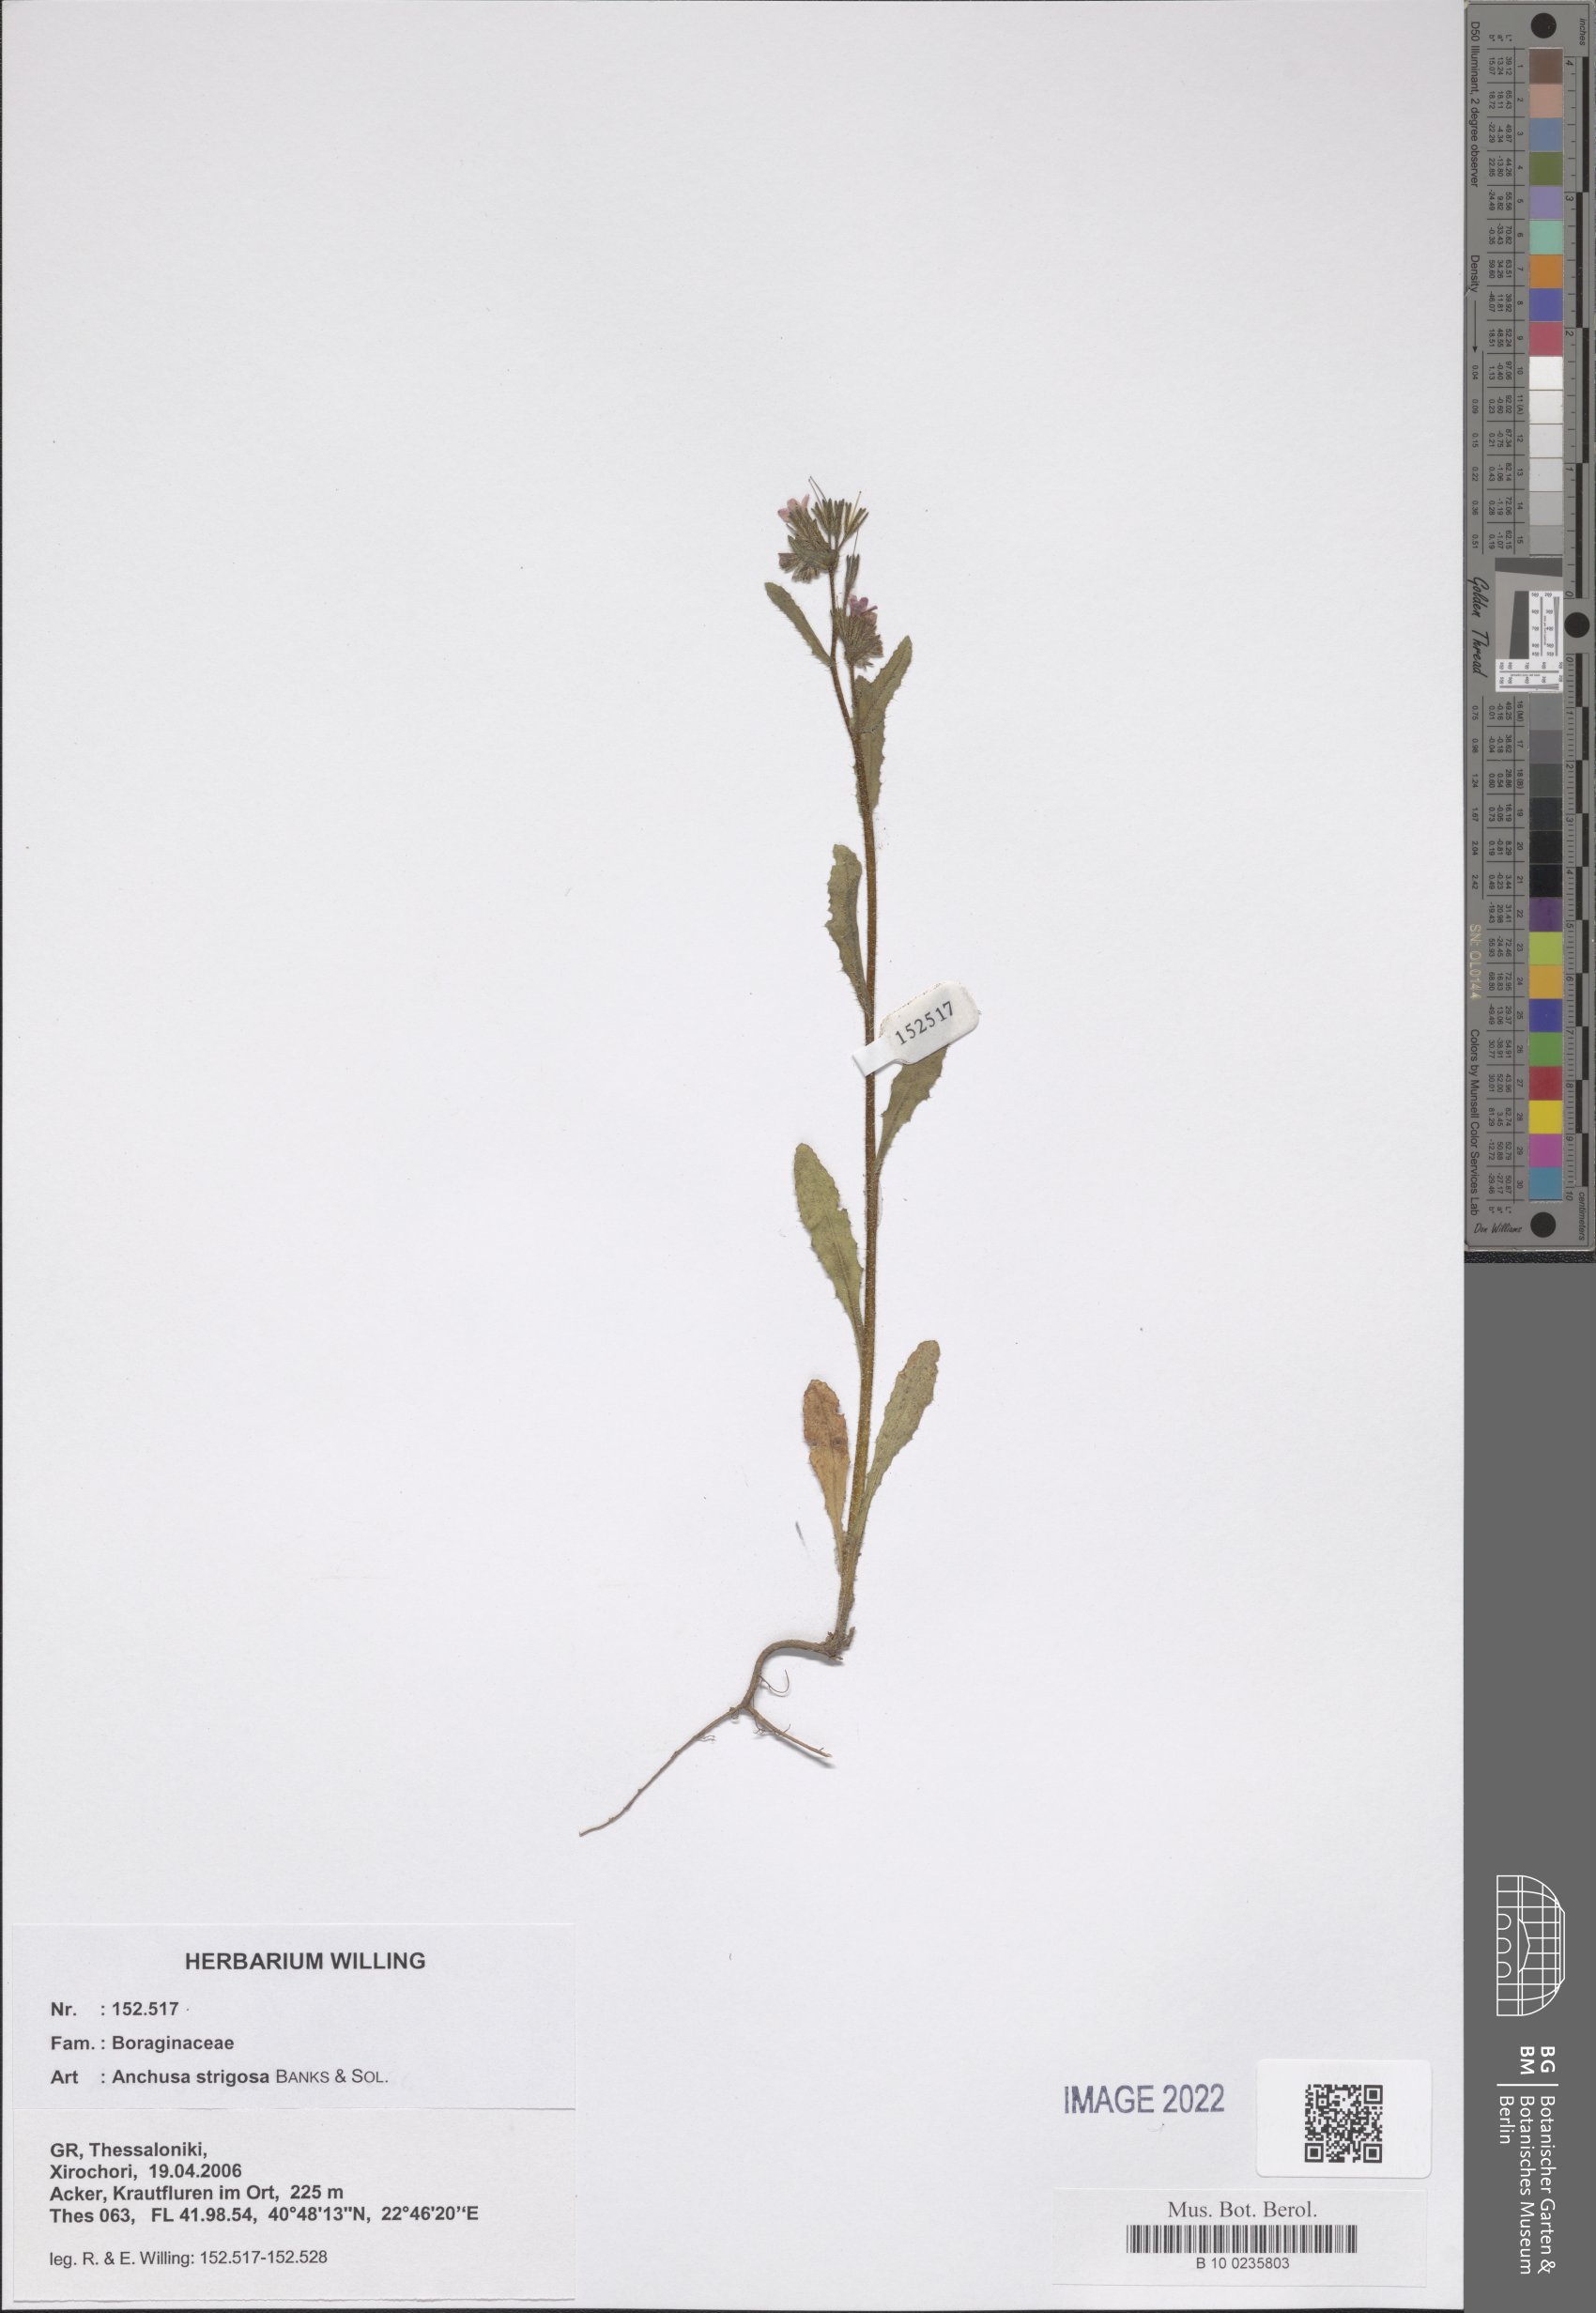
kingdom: Plantae
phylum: Tracheophyta
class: Magnoliopsida
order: Boraginales
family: Boraginaceae
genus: Anchusa
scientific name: Anchusa strigosa
